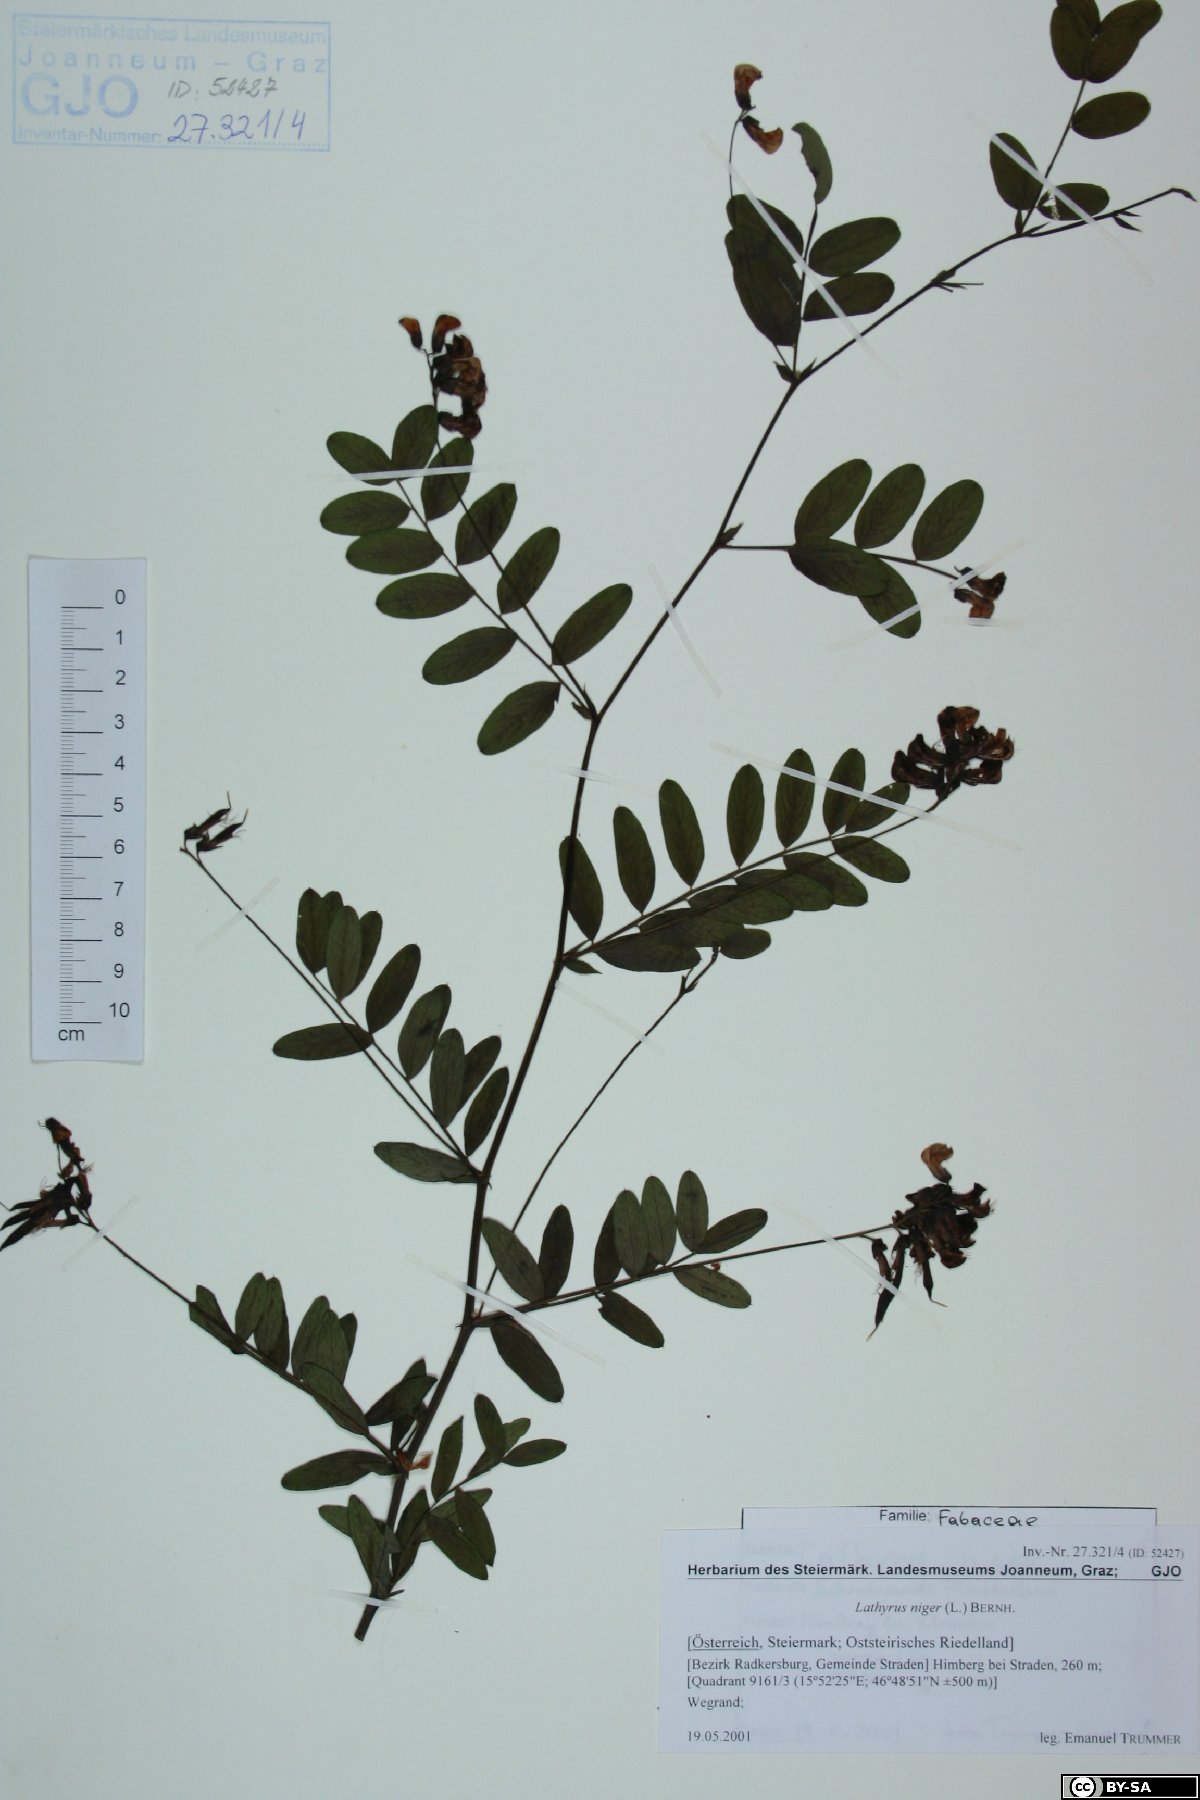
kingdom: Plantae
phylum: Tracheophyta
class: Magnoliopsida
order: Fabales
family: Fabaceae
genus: Lathyrus
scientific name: Lathyrus niger
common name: Black pea
